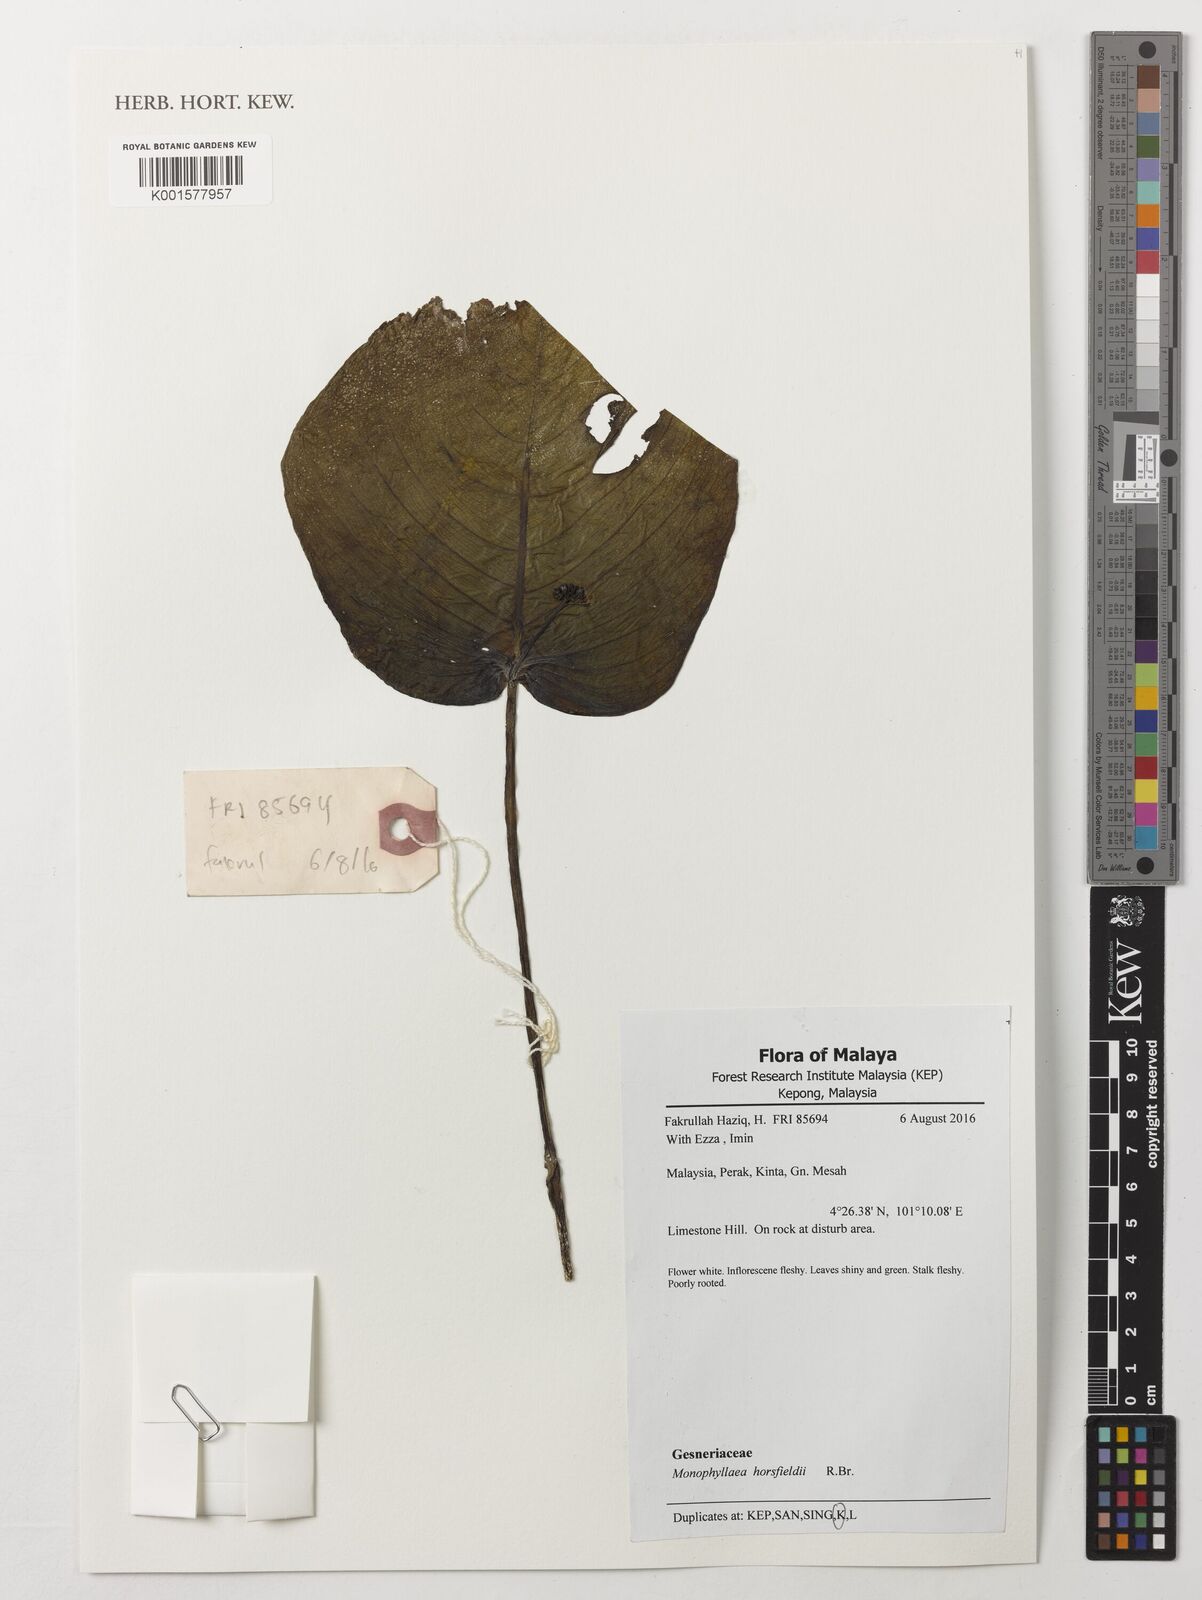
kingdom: Plantae
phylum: Tracheophyta
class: Magnoliopsida
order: Lamiales
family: Gesneriaceae
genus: Monophyllaea
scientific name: Monophyllaea horsfieldii
